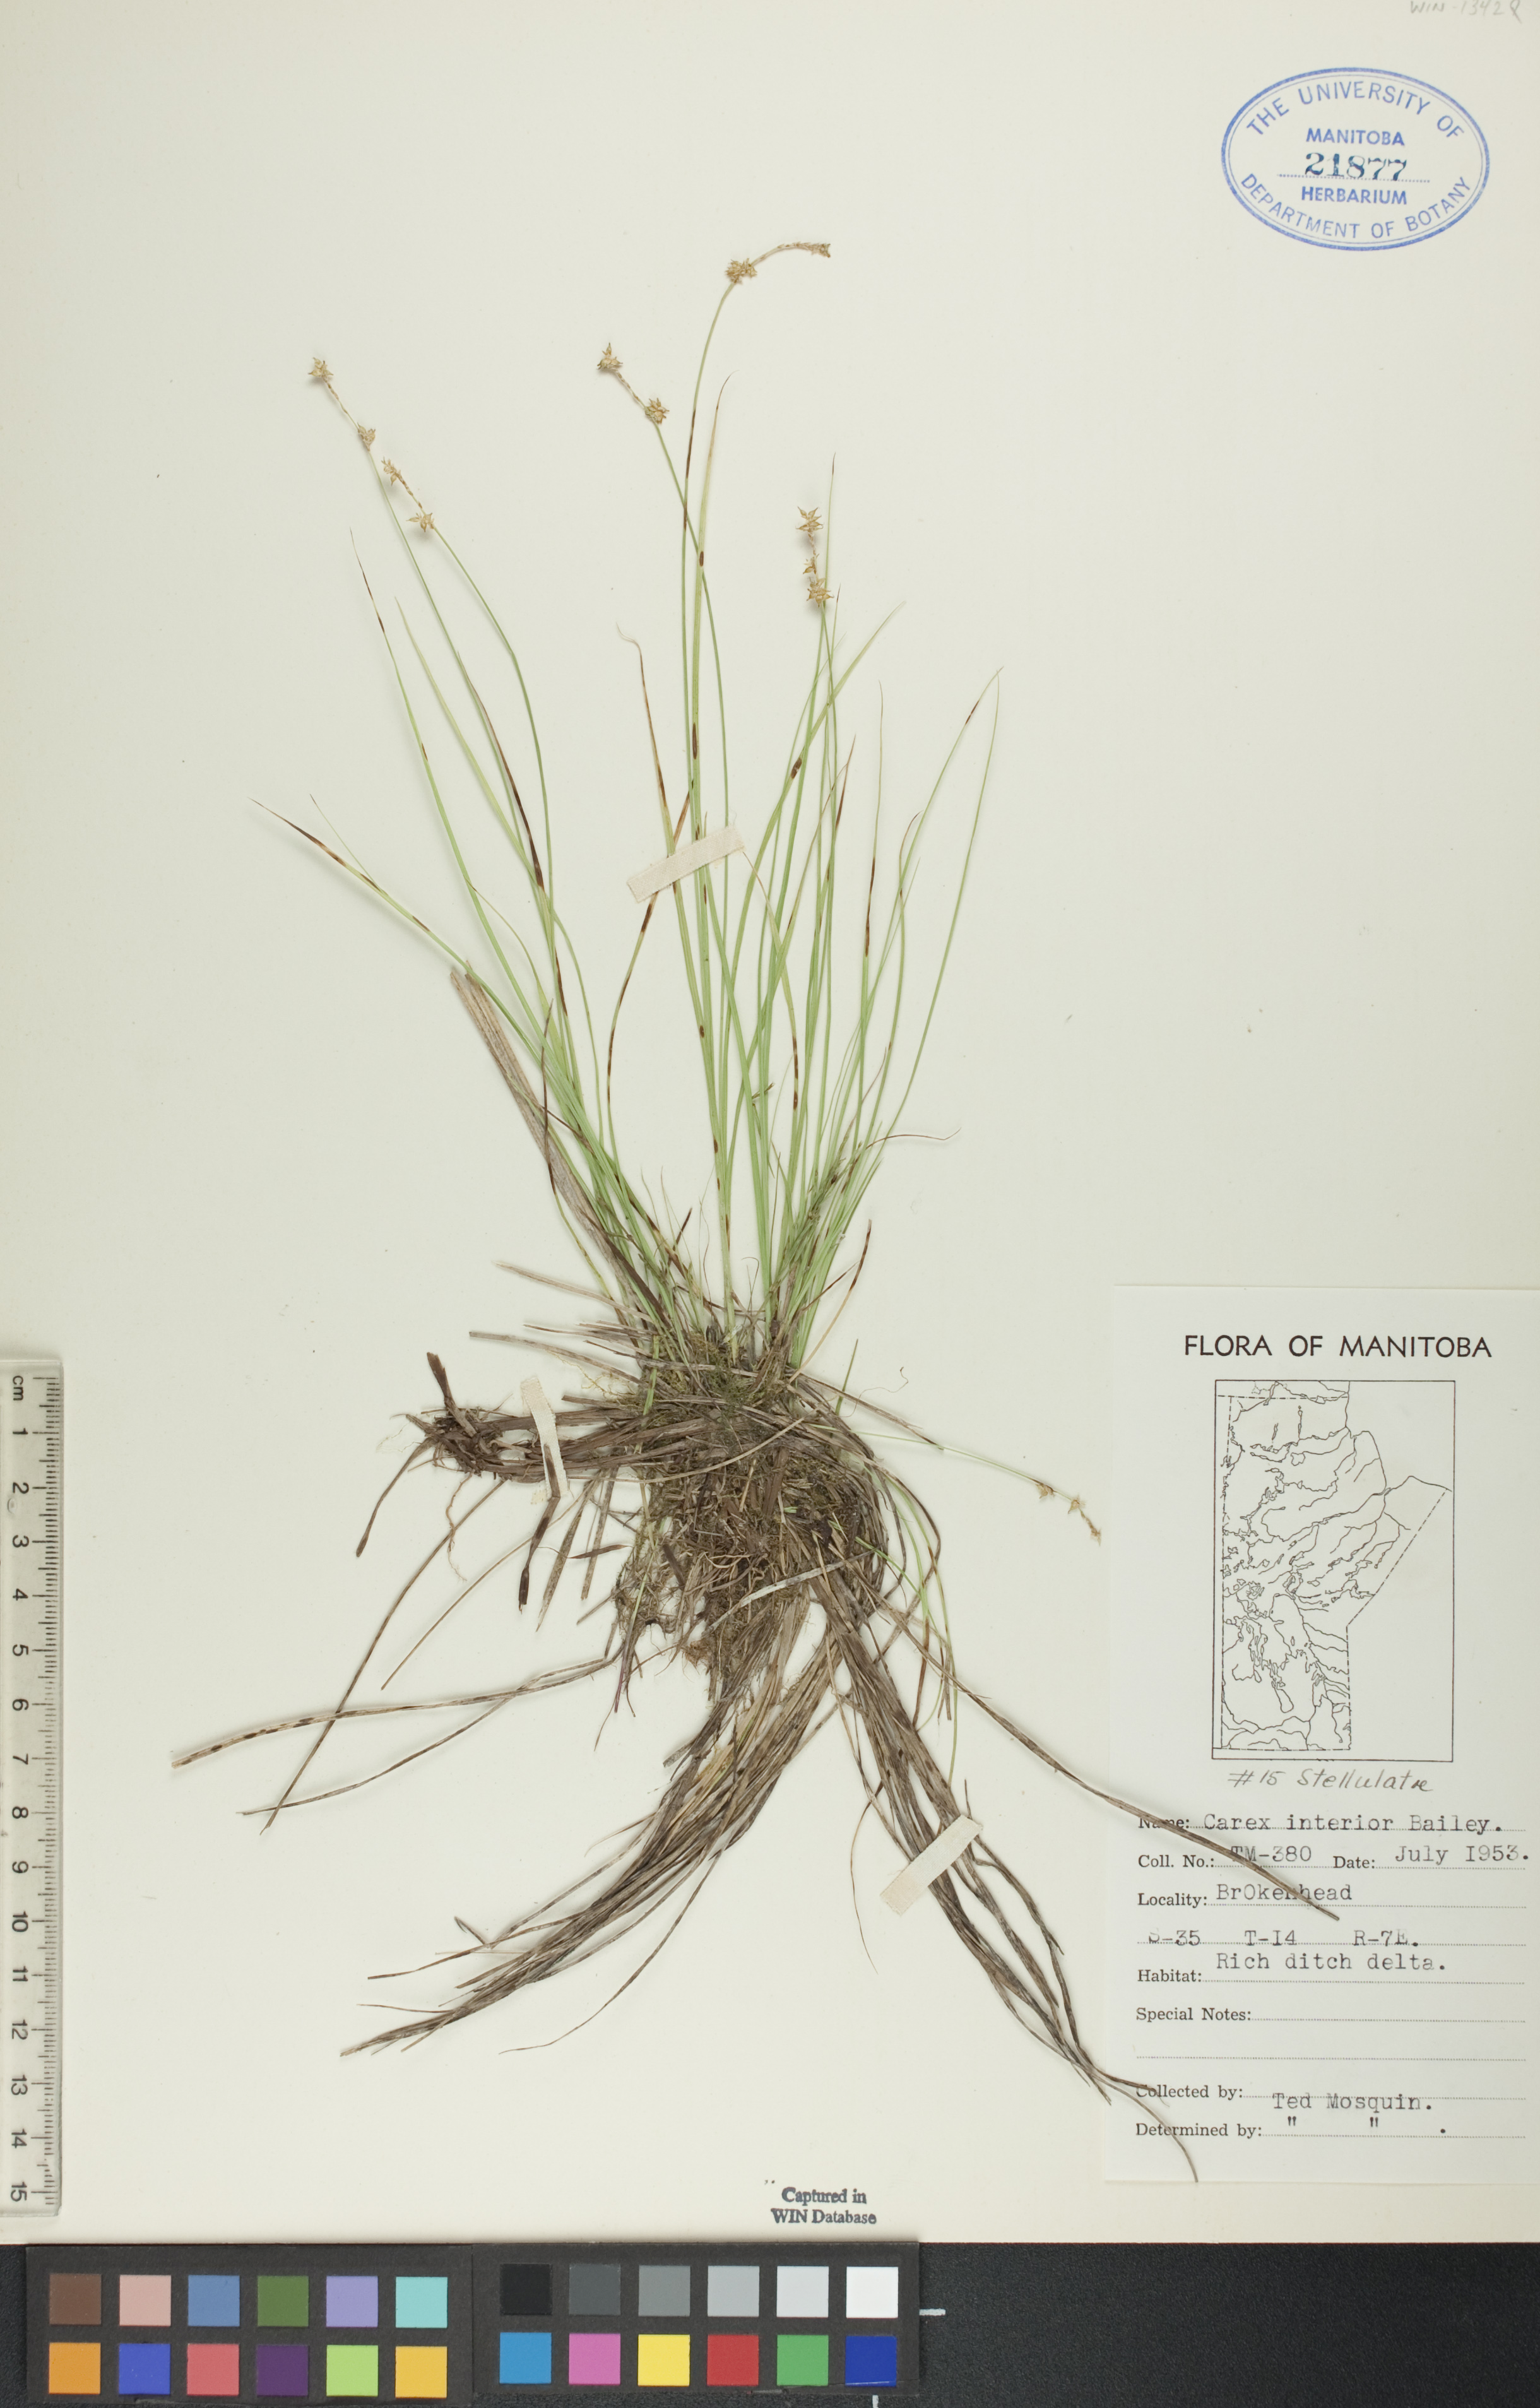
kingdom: Plantae
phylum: Tracheophyta
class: Liliopsida
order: Poales
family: Cyperaceae
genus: Carex
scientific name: Carex interior
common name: Inland sedge
